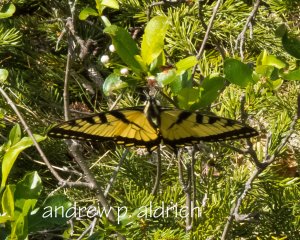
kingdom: Animalia
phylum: Arthropoda
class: Insecta
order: Lepidoptera
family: Papilionidae
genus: Pterourus
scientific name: Pterourus
